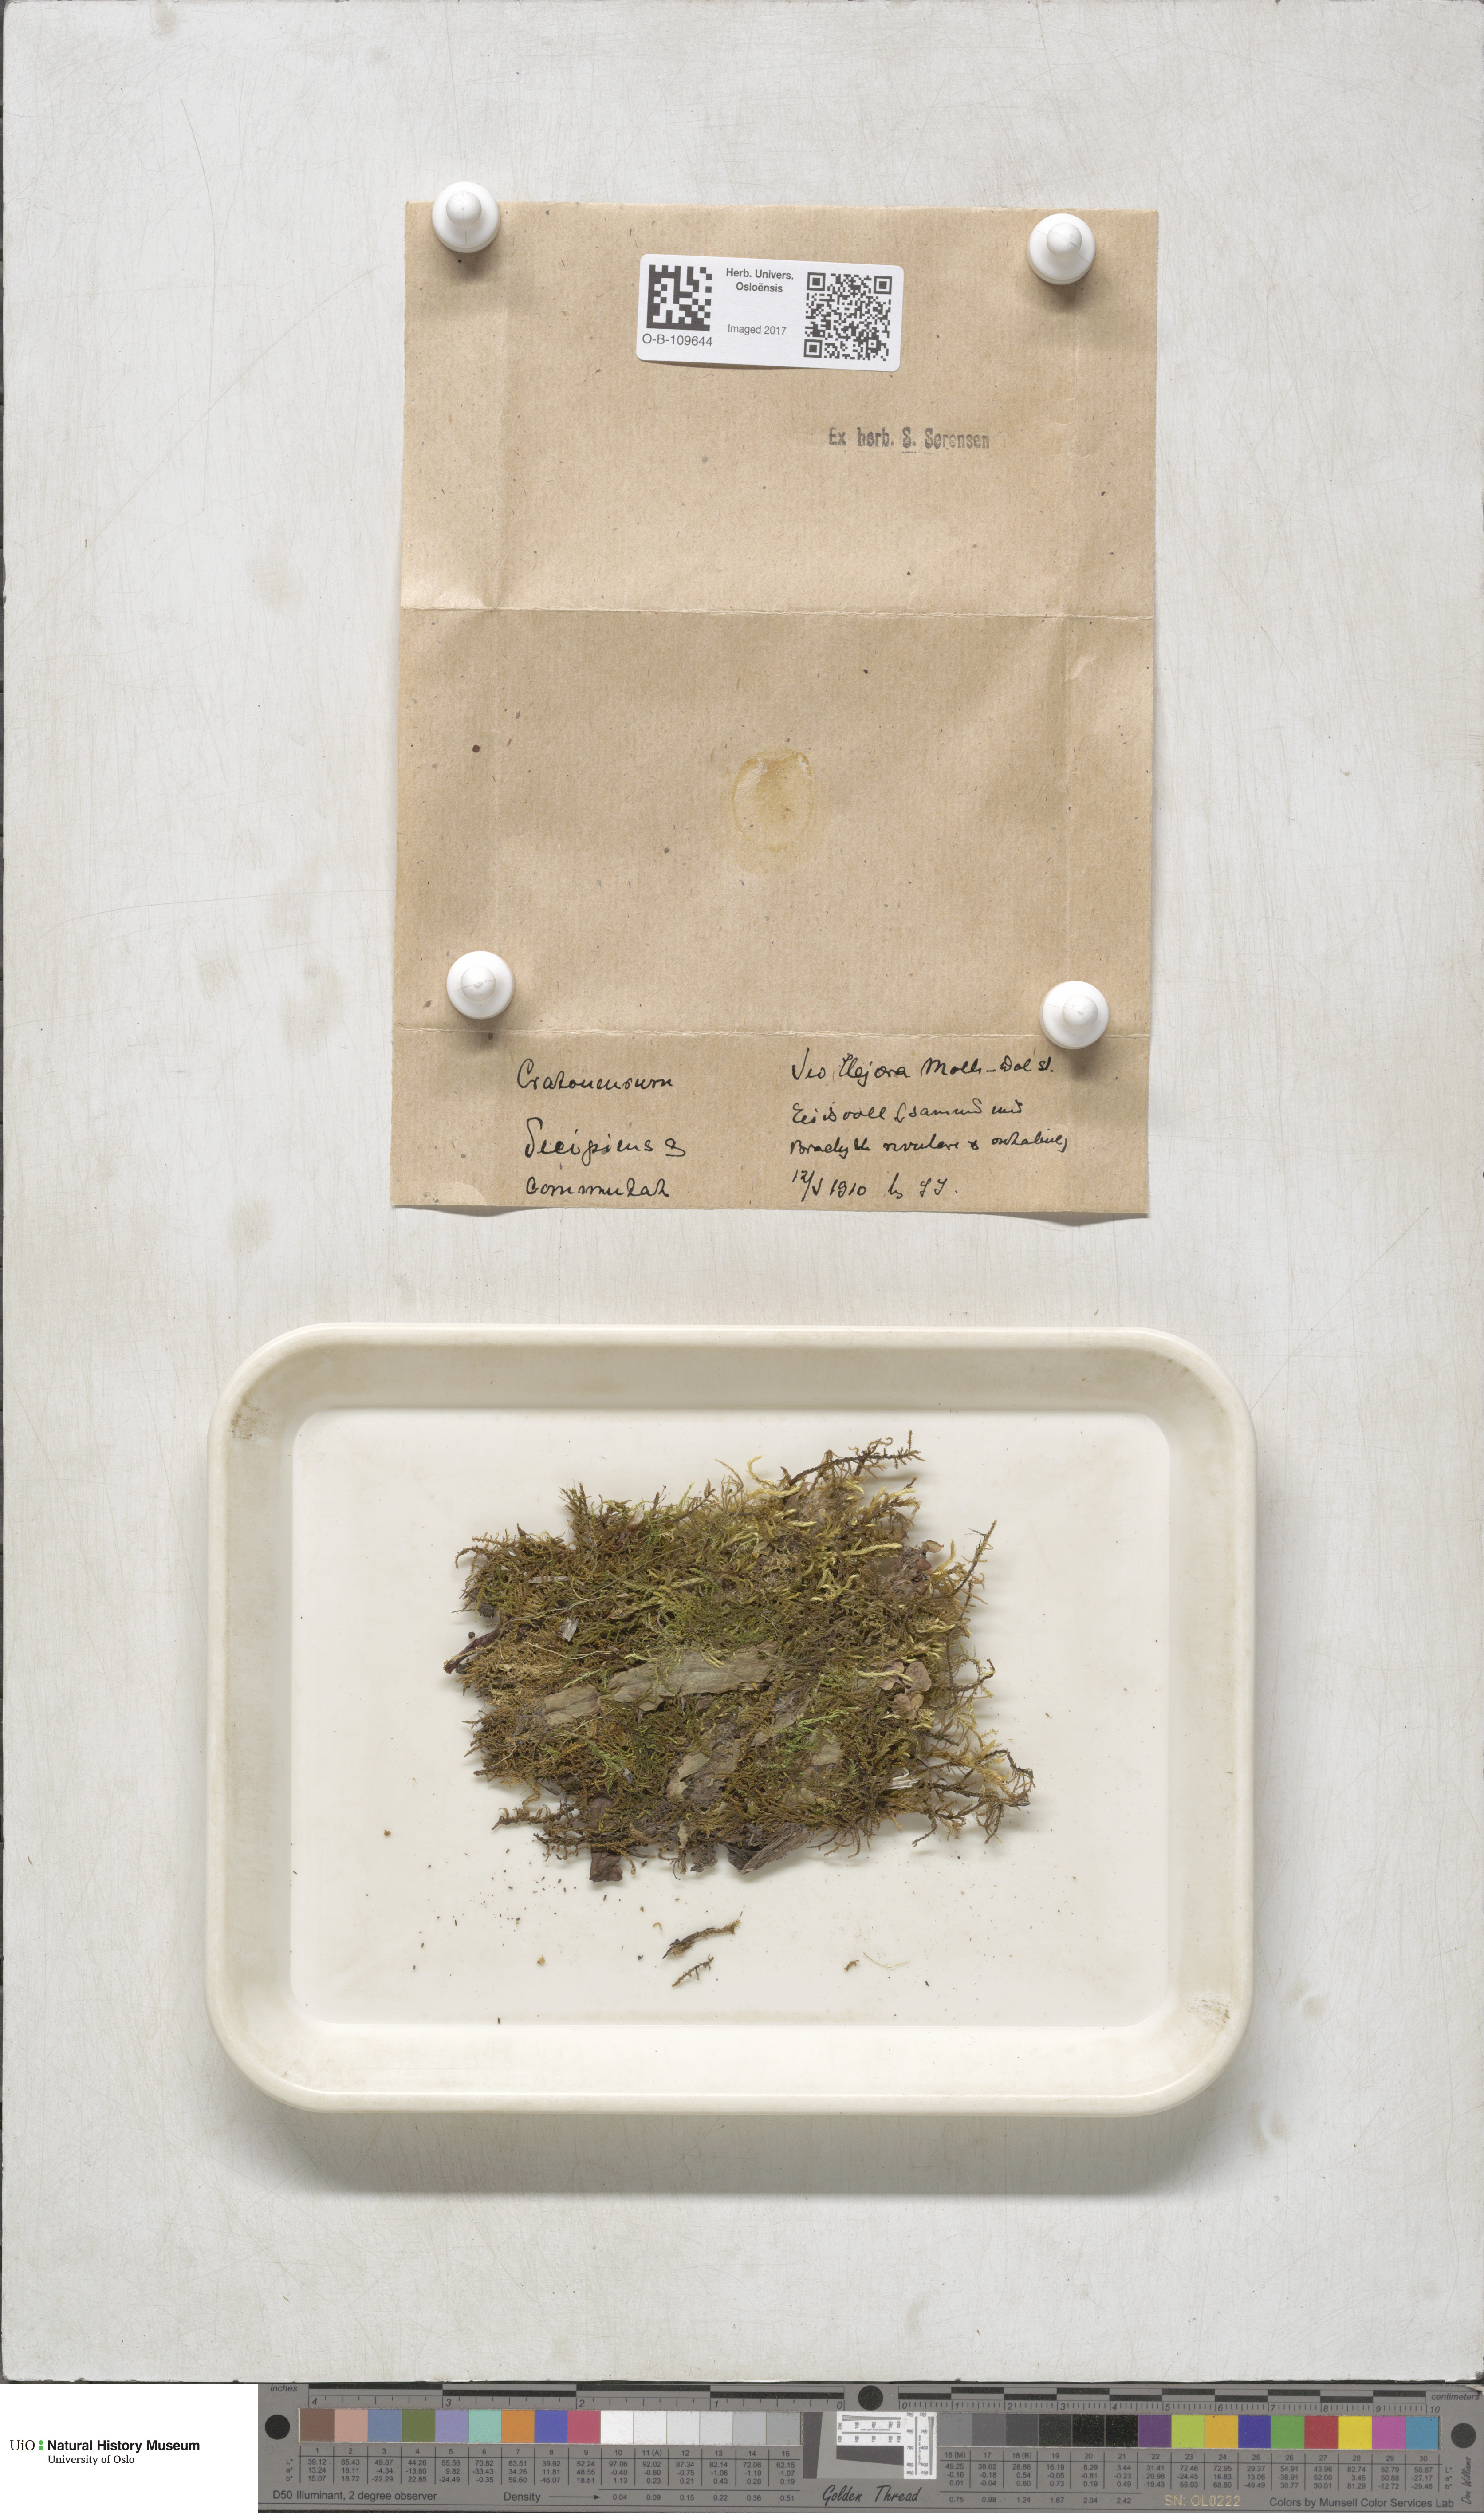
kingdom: Plantae
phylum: Bryophyta
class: Bryopsida
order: Hypnales
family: Amblystegiaceae
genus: Palustriella
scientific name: Palustriella decipiens
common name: Lesser curled hook-moss
